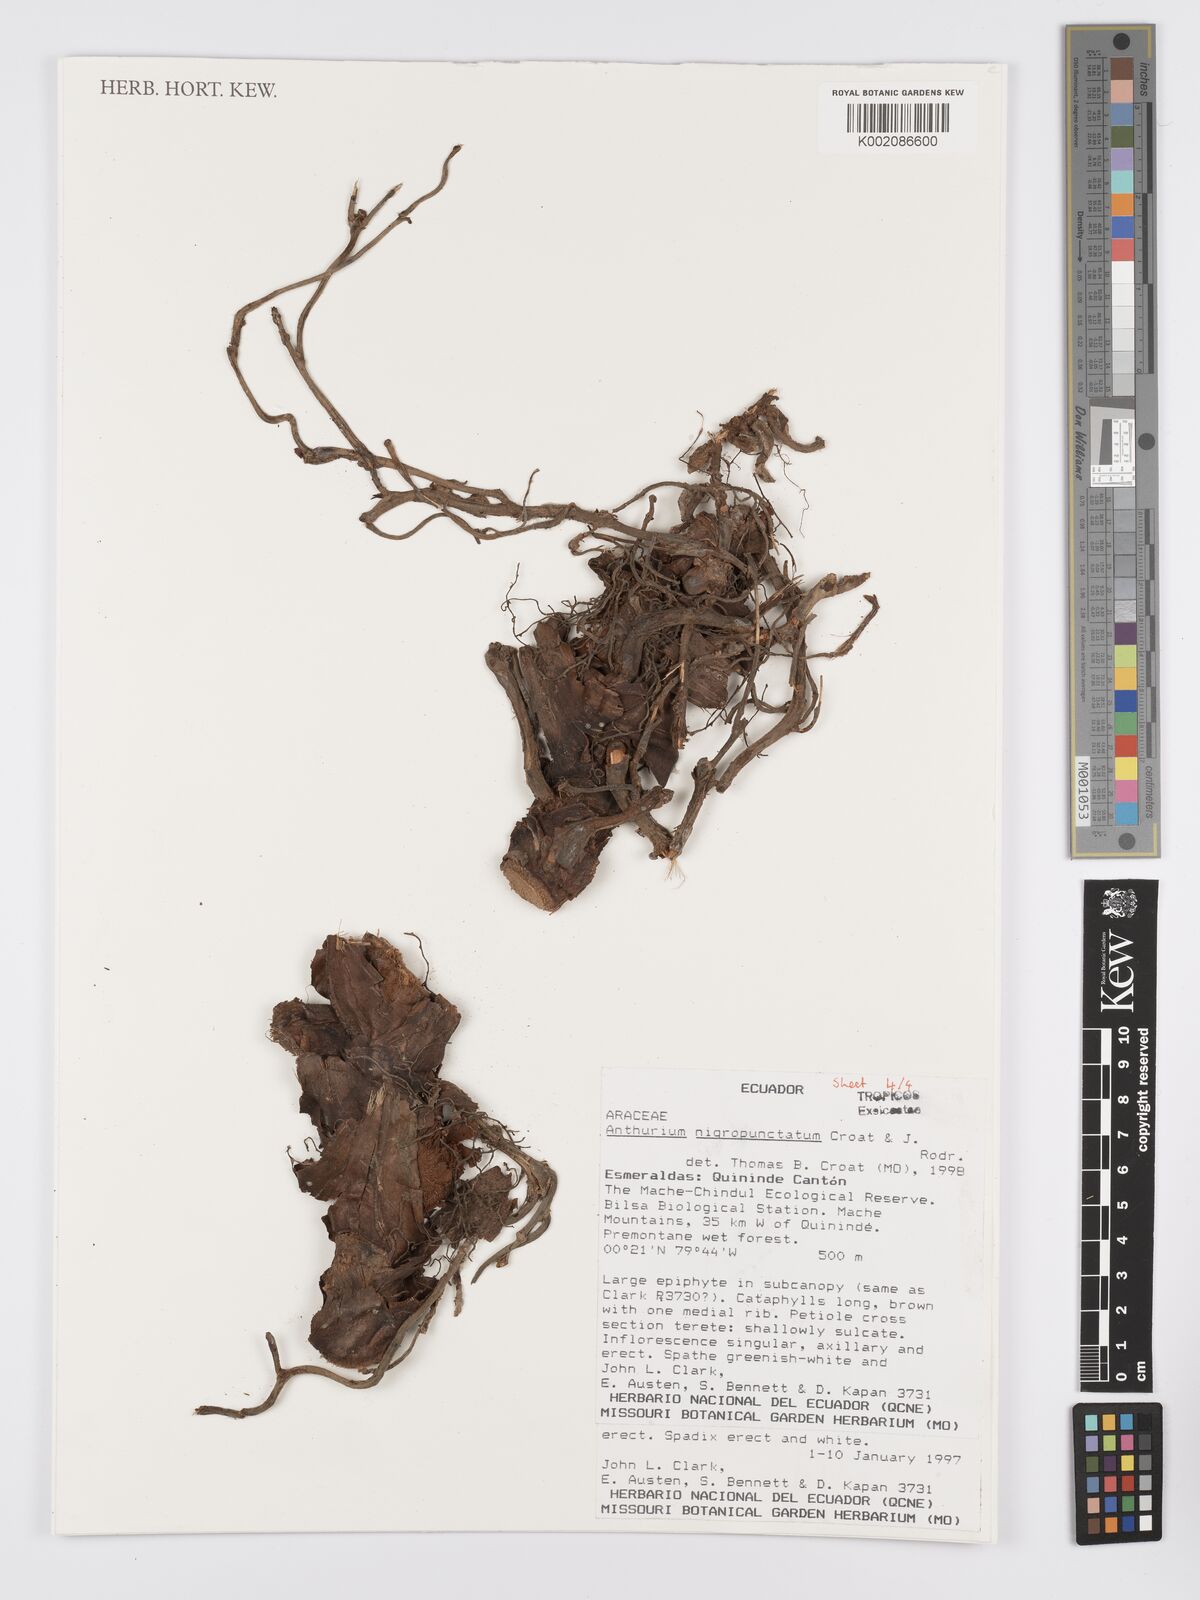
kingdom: Plantae
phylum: Tracheophyta
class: Liliopsida
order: Alismatales
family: Araceae
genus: Anthurium
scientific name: Anthurium nigropunctatum
